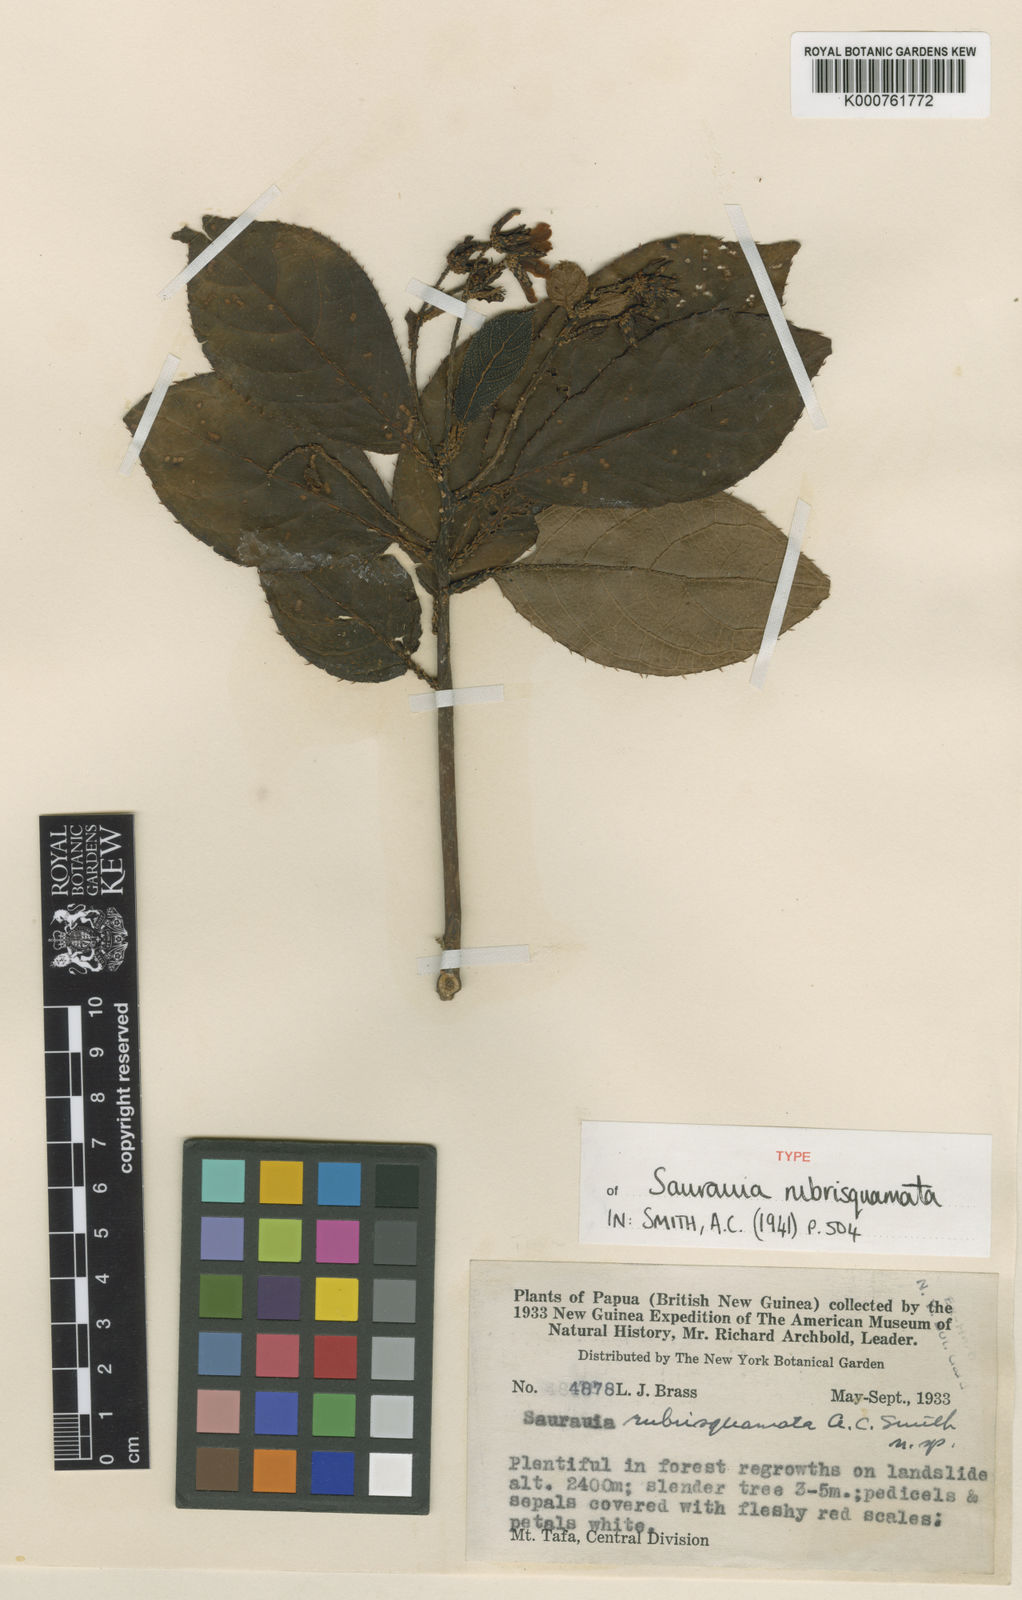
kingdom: Plantae
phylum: Tracheophyta
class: Magnoliopsida
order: Ericales
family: Actinidiaceae
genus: Saurauia
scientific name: Saurauia rubrisquamata
